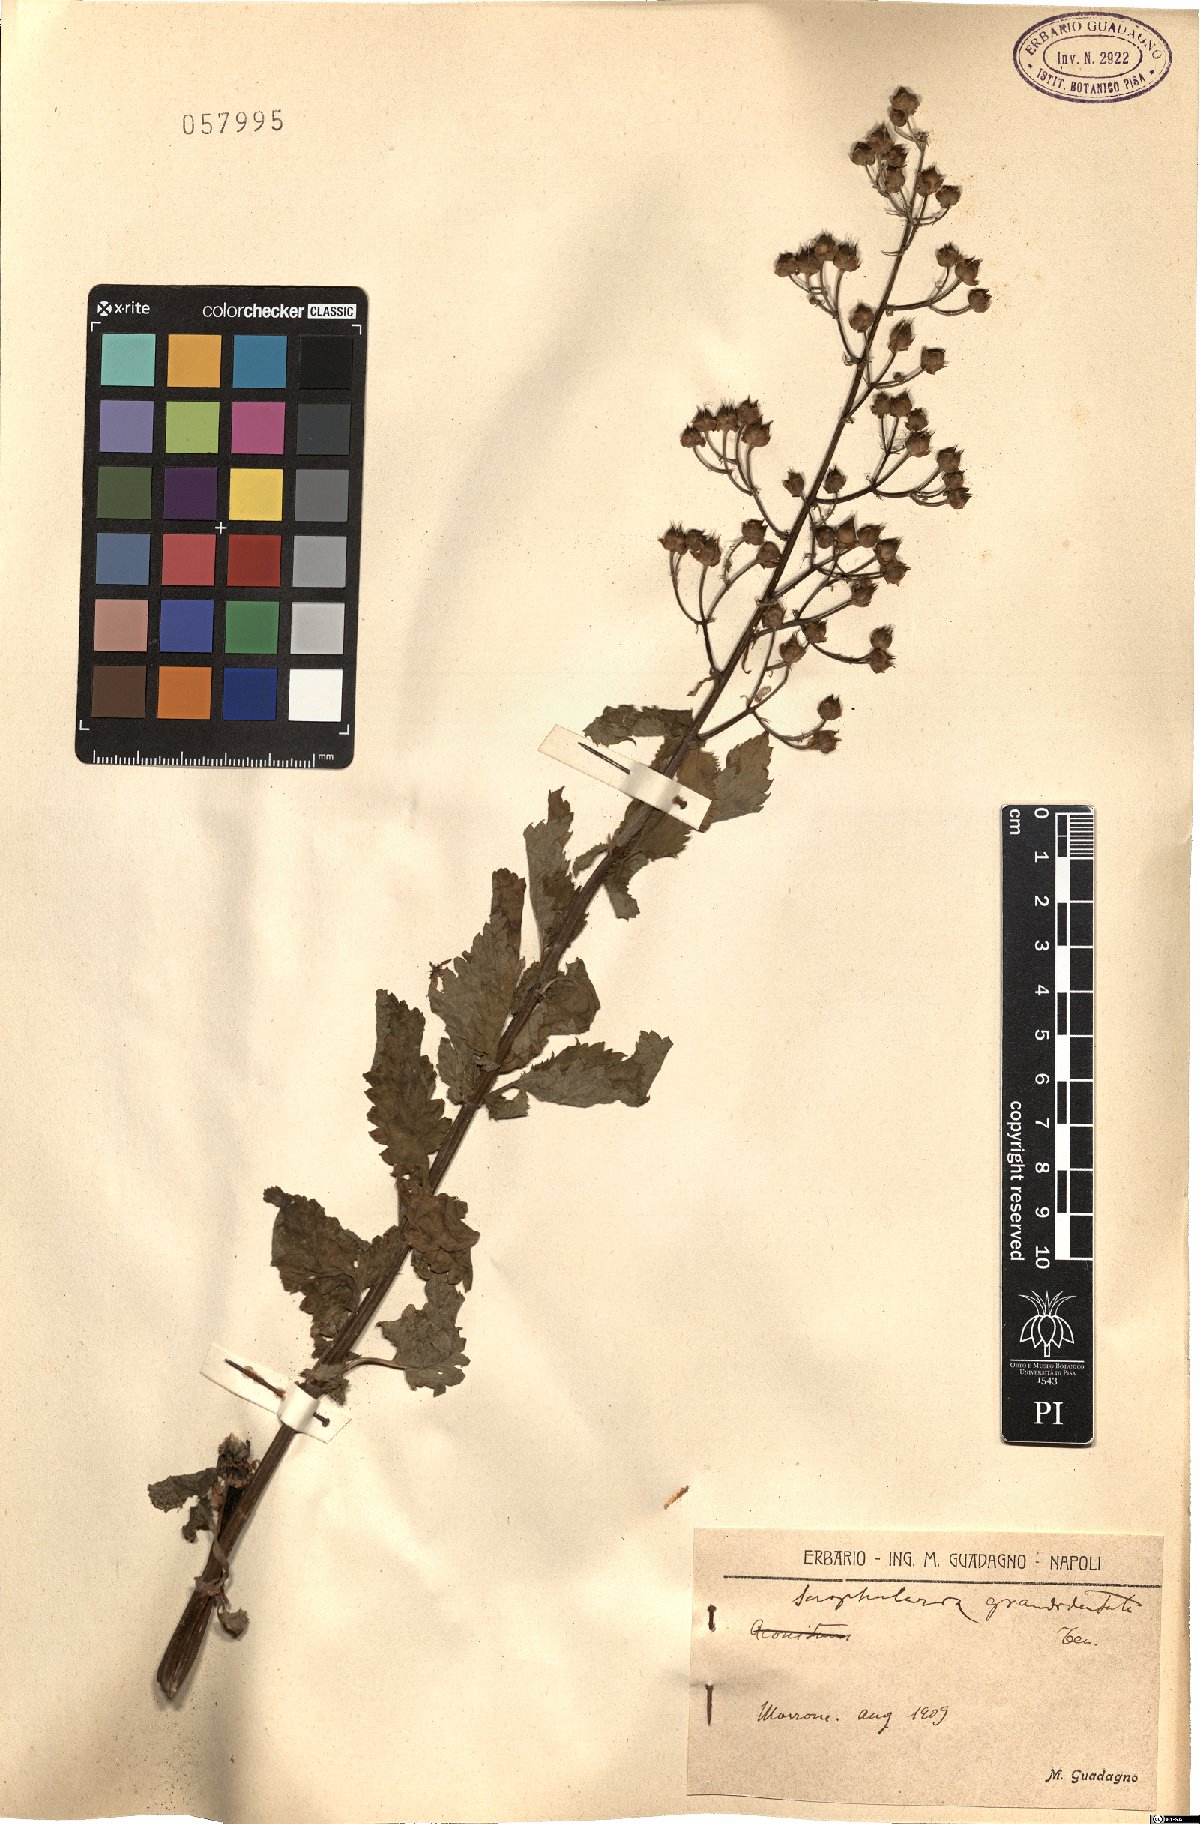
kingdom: Plantae
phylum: Tracheophyta
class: Magnoliopsida
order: Lamiales
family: Scrophulariaceae
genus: Scrophularia
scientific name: Scrophularia scopolii
